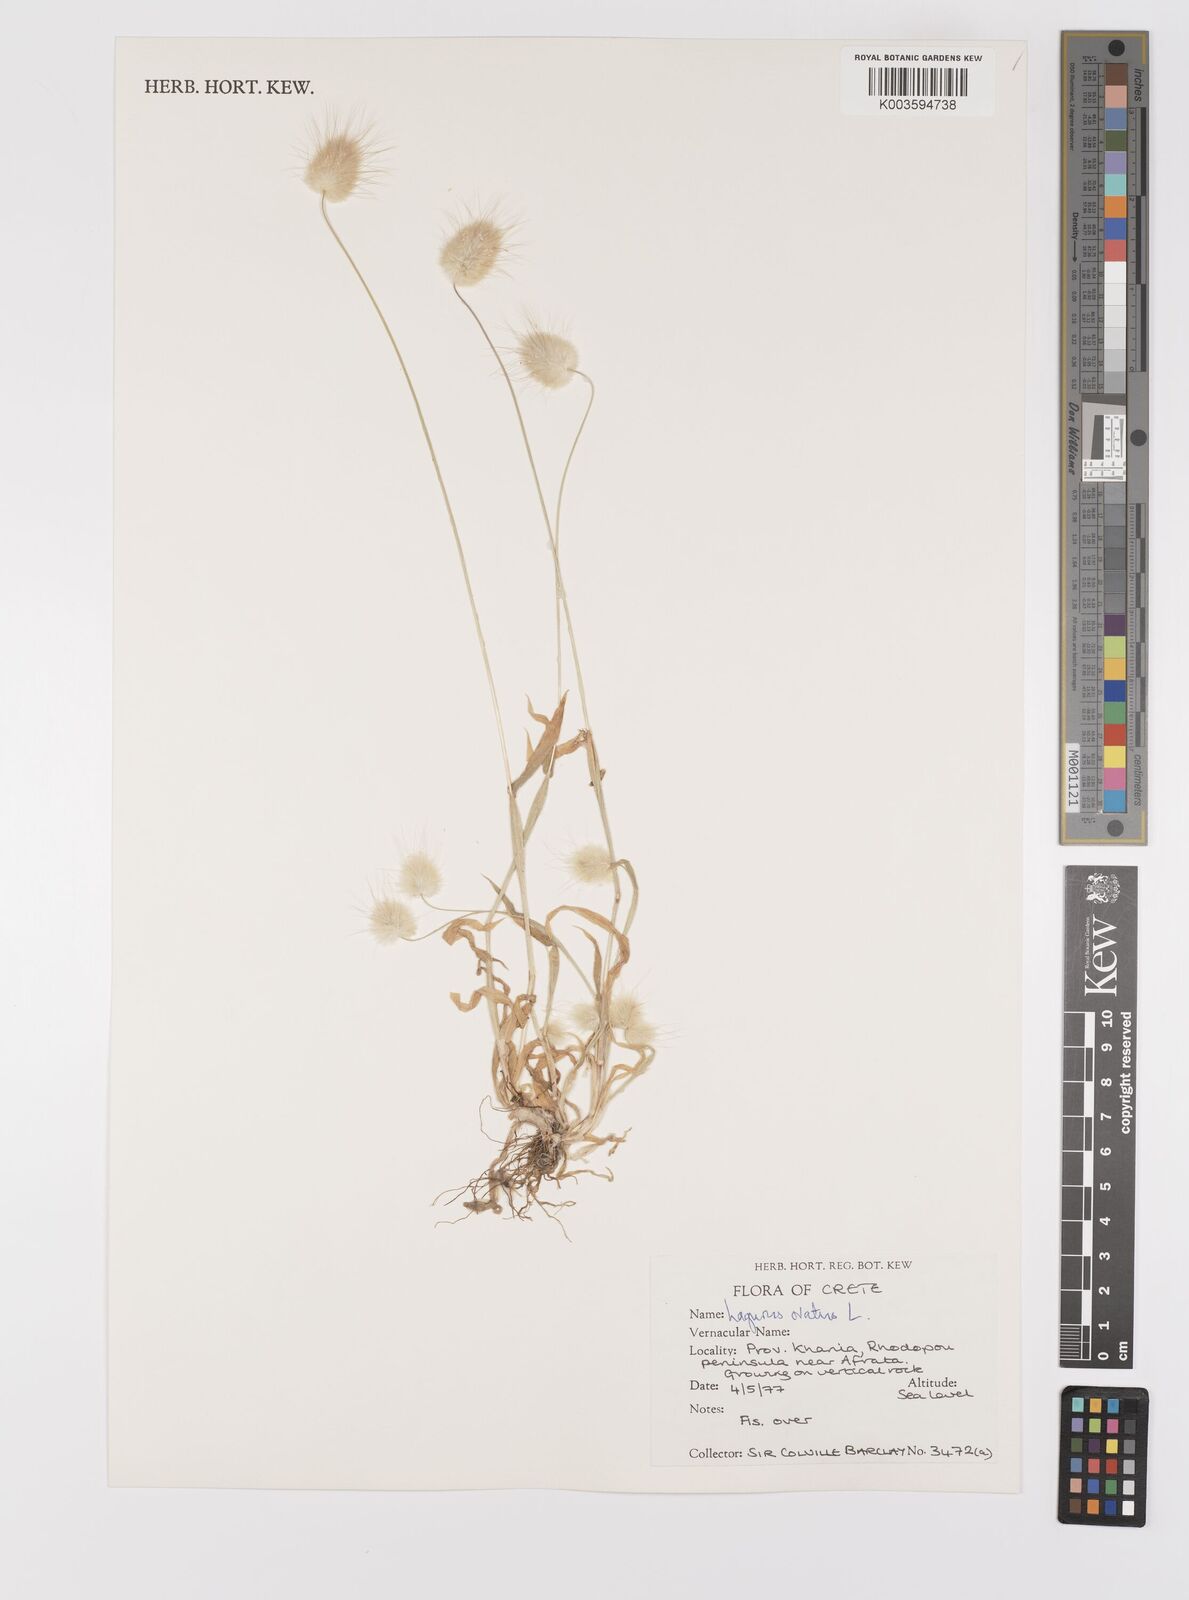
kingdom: Plantae
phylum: Tracheophyta
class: Liliopsida
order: Poales
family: Poaceae
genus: Lagurus
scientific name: Lagurus ovatus
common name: Hare's-tail
